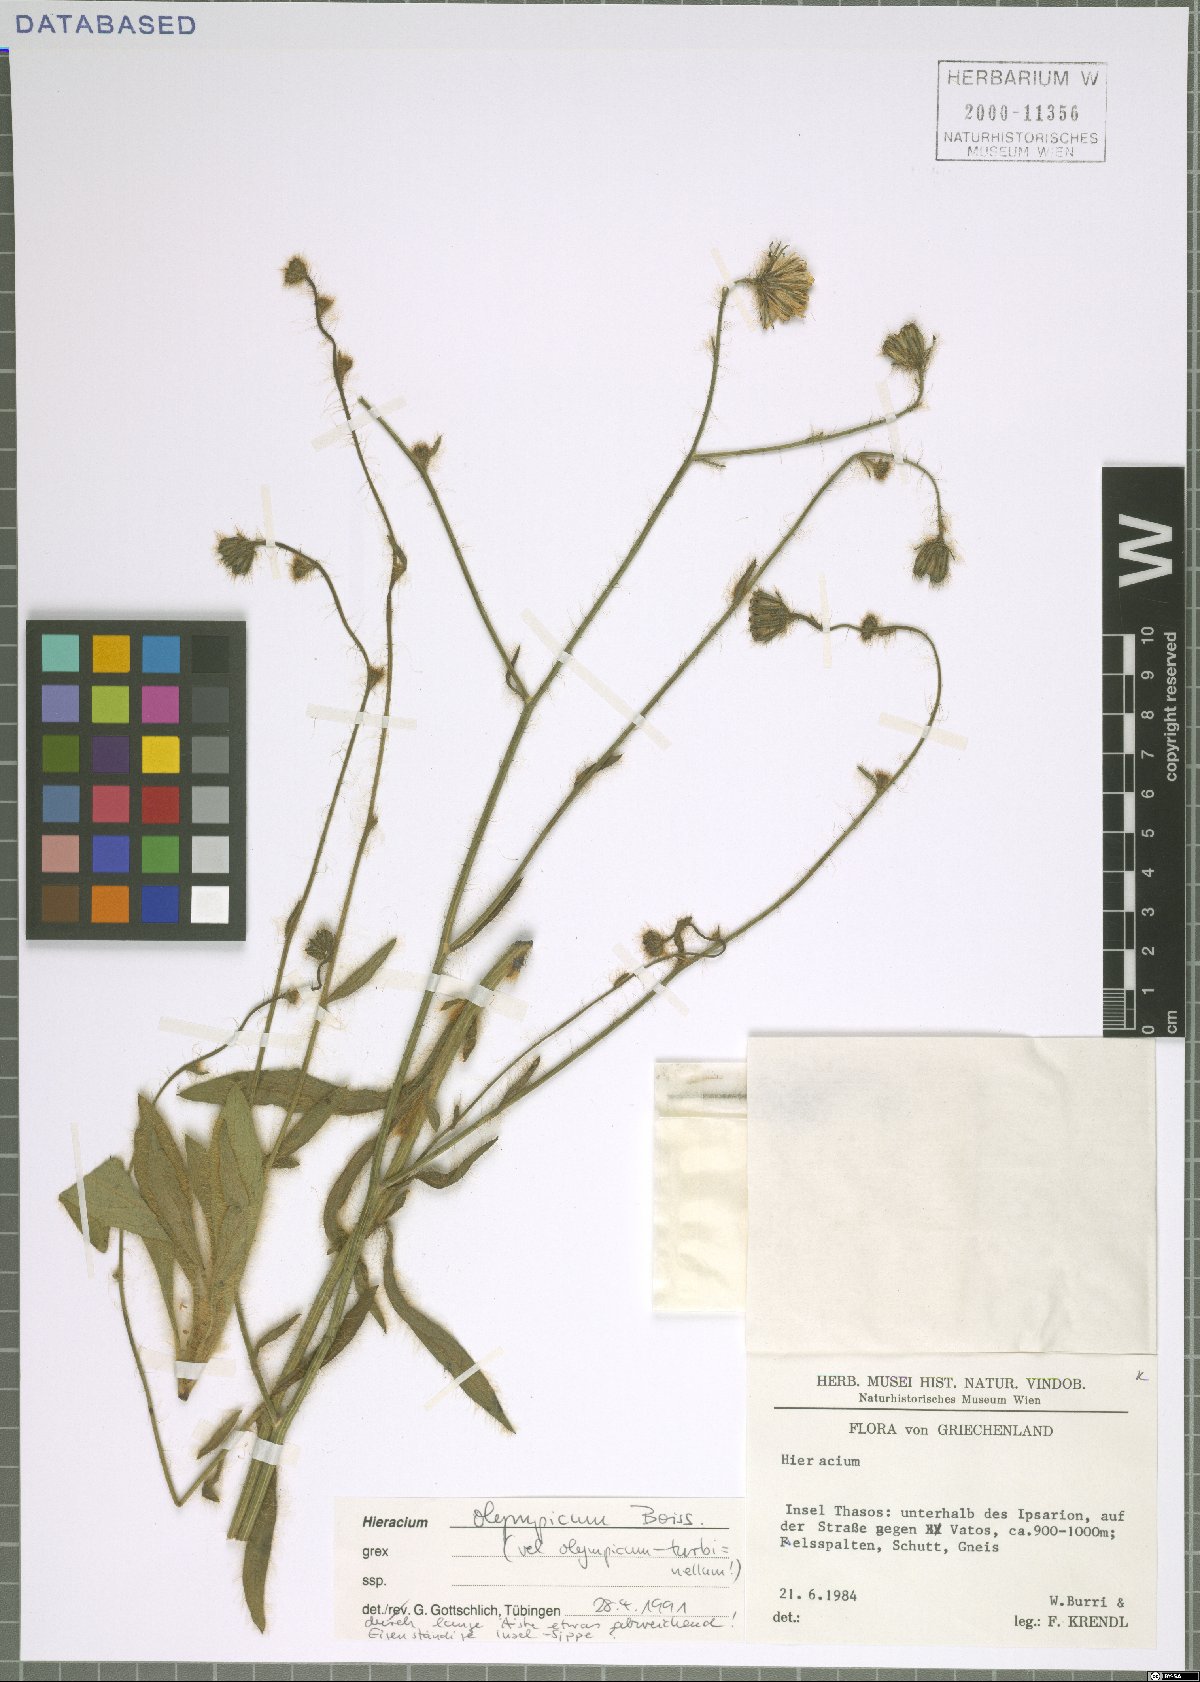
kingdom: Plantae
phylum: Tracheophyta
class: Magnoliopsida
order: Asterales
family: Asteraceae
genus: Hieracium
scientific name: Hieracium olympicum
